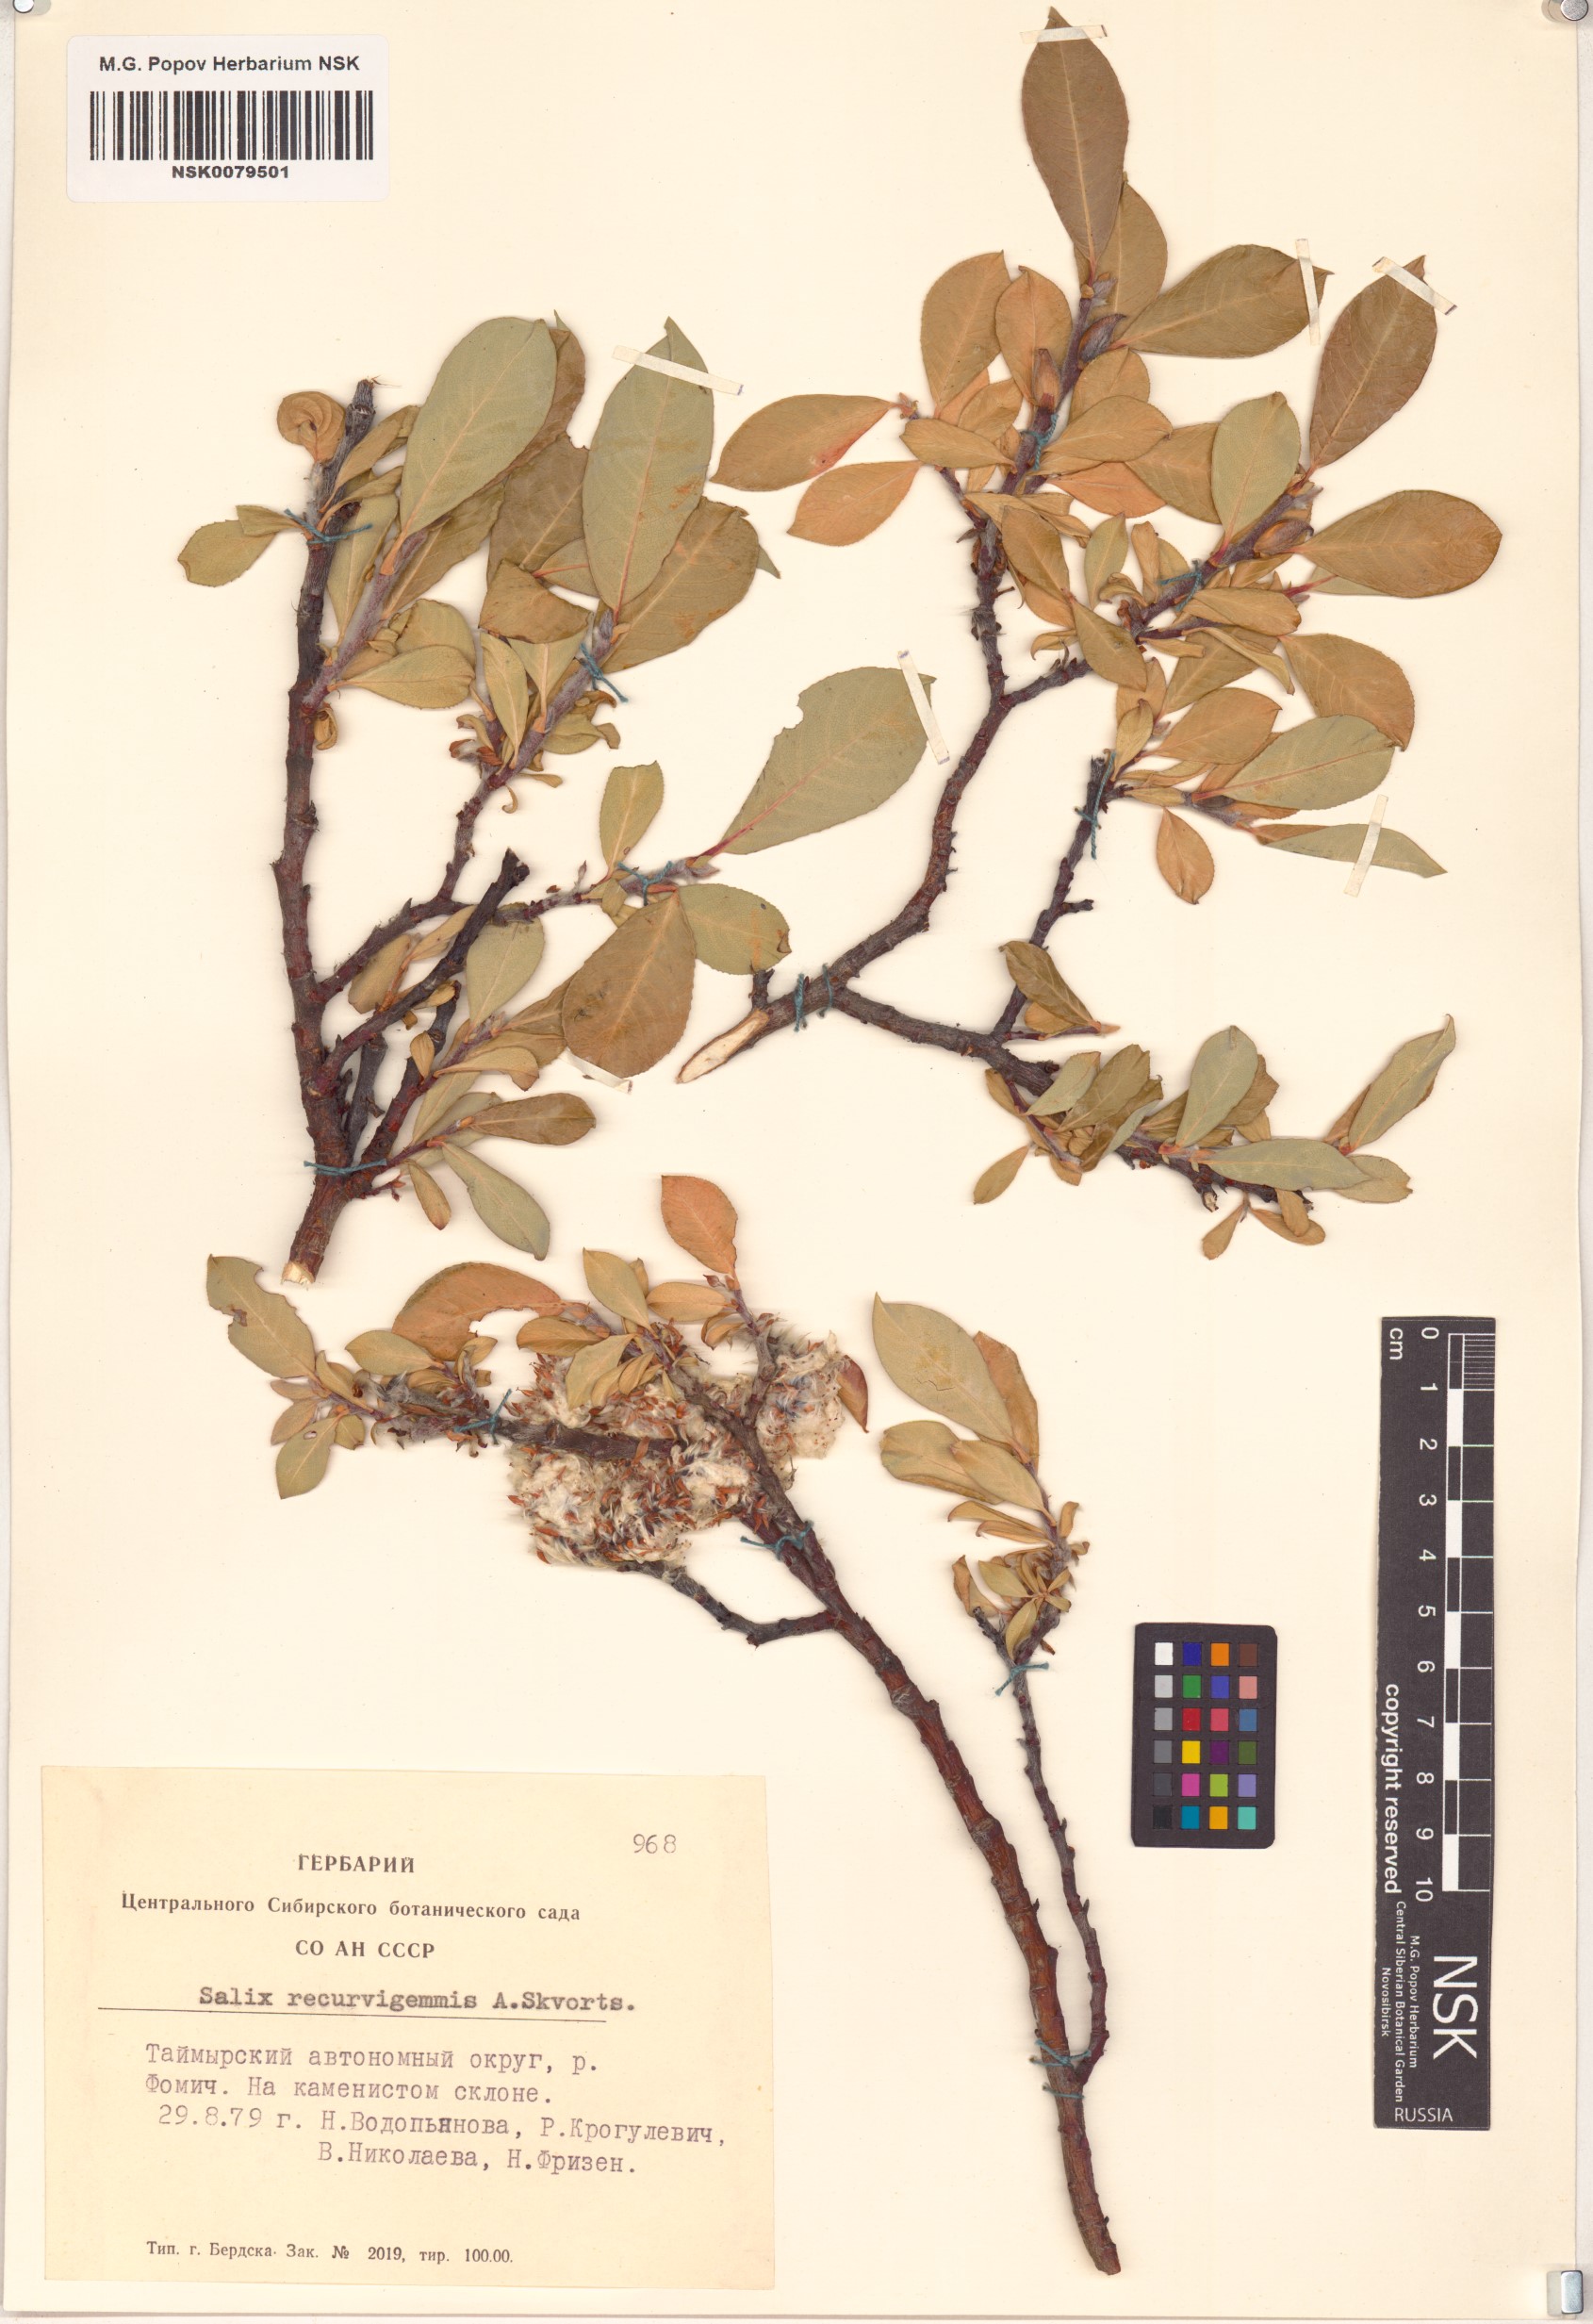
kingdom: Plantae
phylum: Tracheophyta
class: Magnoliopsida
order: Malpighiales
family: Salicaceae
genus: Salix
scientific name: Salix recurvigemmata
